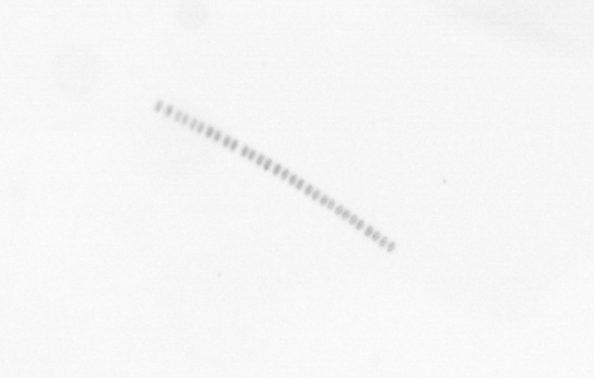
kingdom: Chromista
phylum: Ochrophyta
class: Bacillariophyceae
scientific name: Bacillariophyceae
